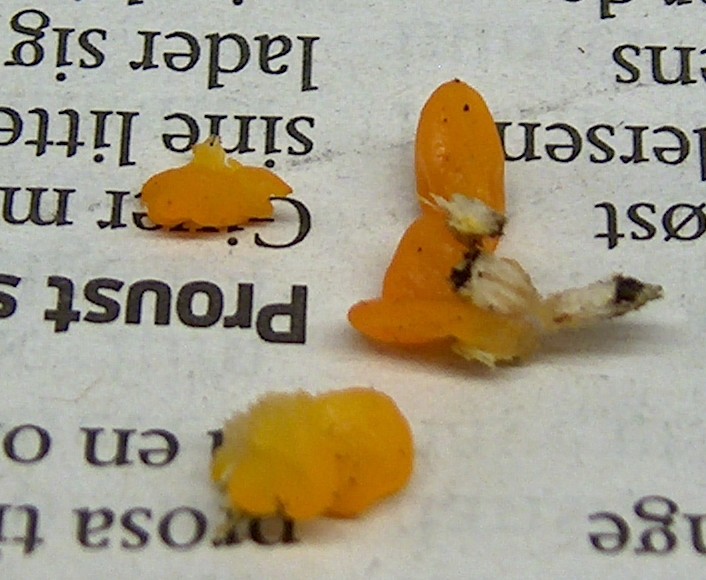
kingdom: Fungi
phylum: Basidiomycota
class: Dacrymycetes
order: Dacrymycetales
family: Dacrymycetaceae
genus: Dacrymyces
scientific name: Dacrymyces stillatus
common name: almindelig tåresvamp
